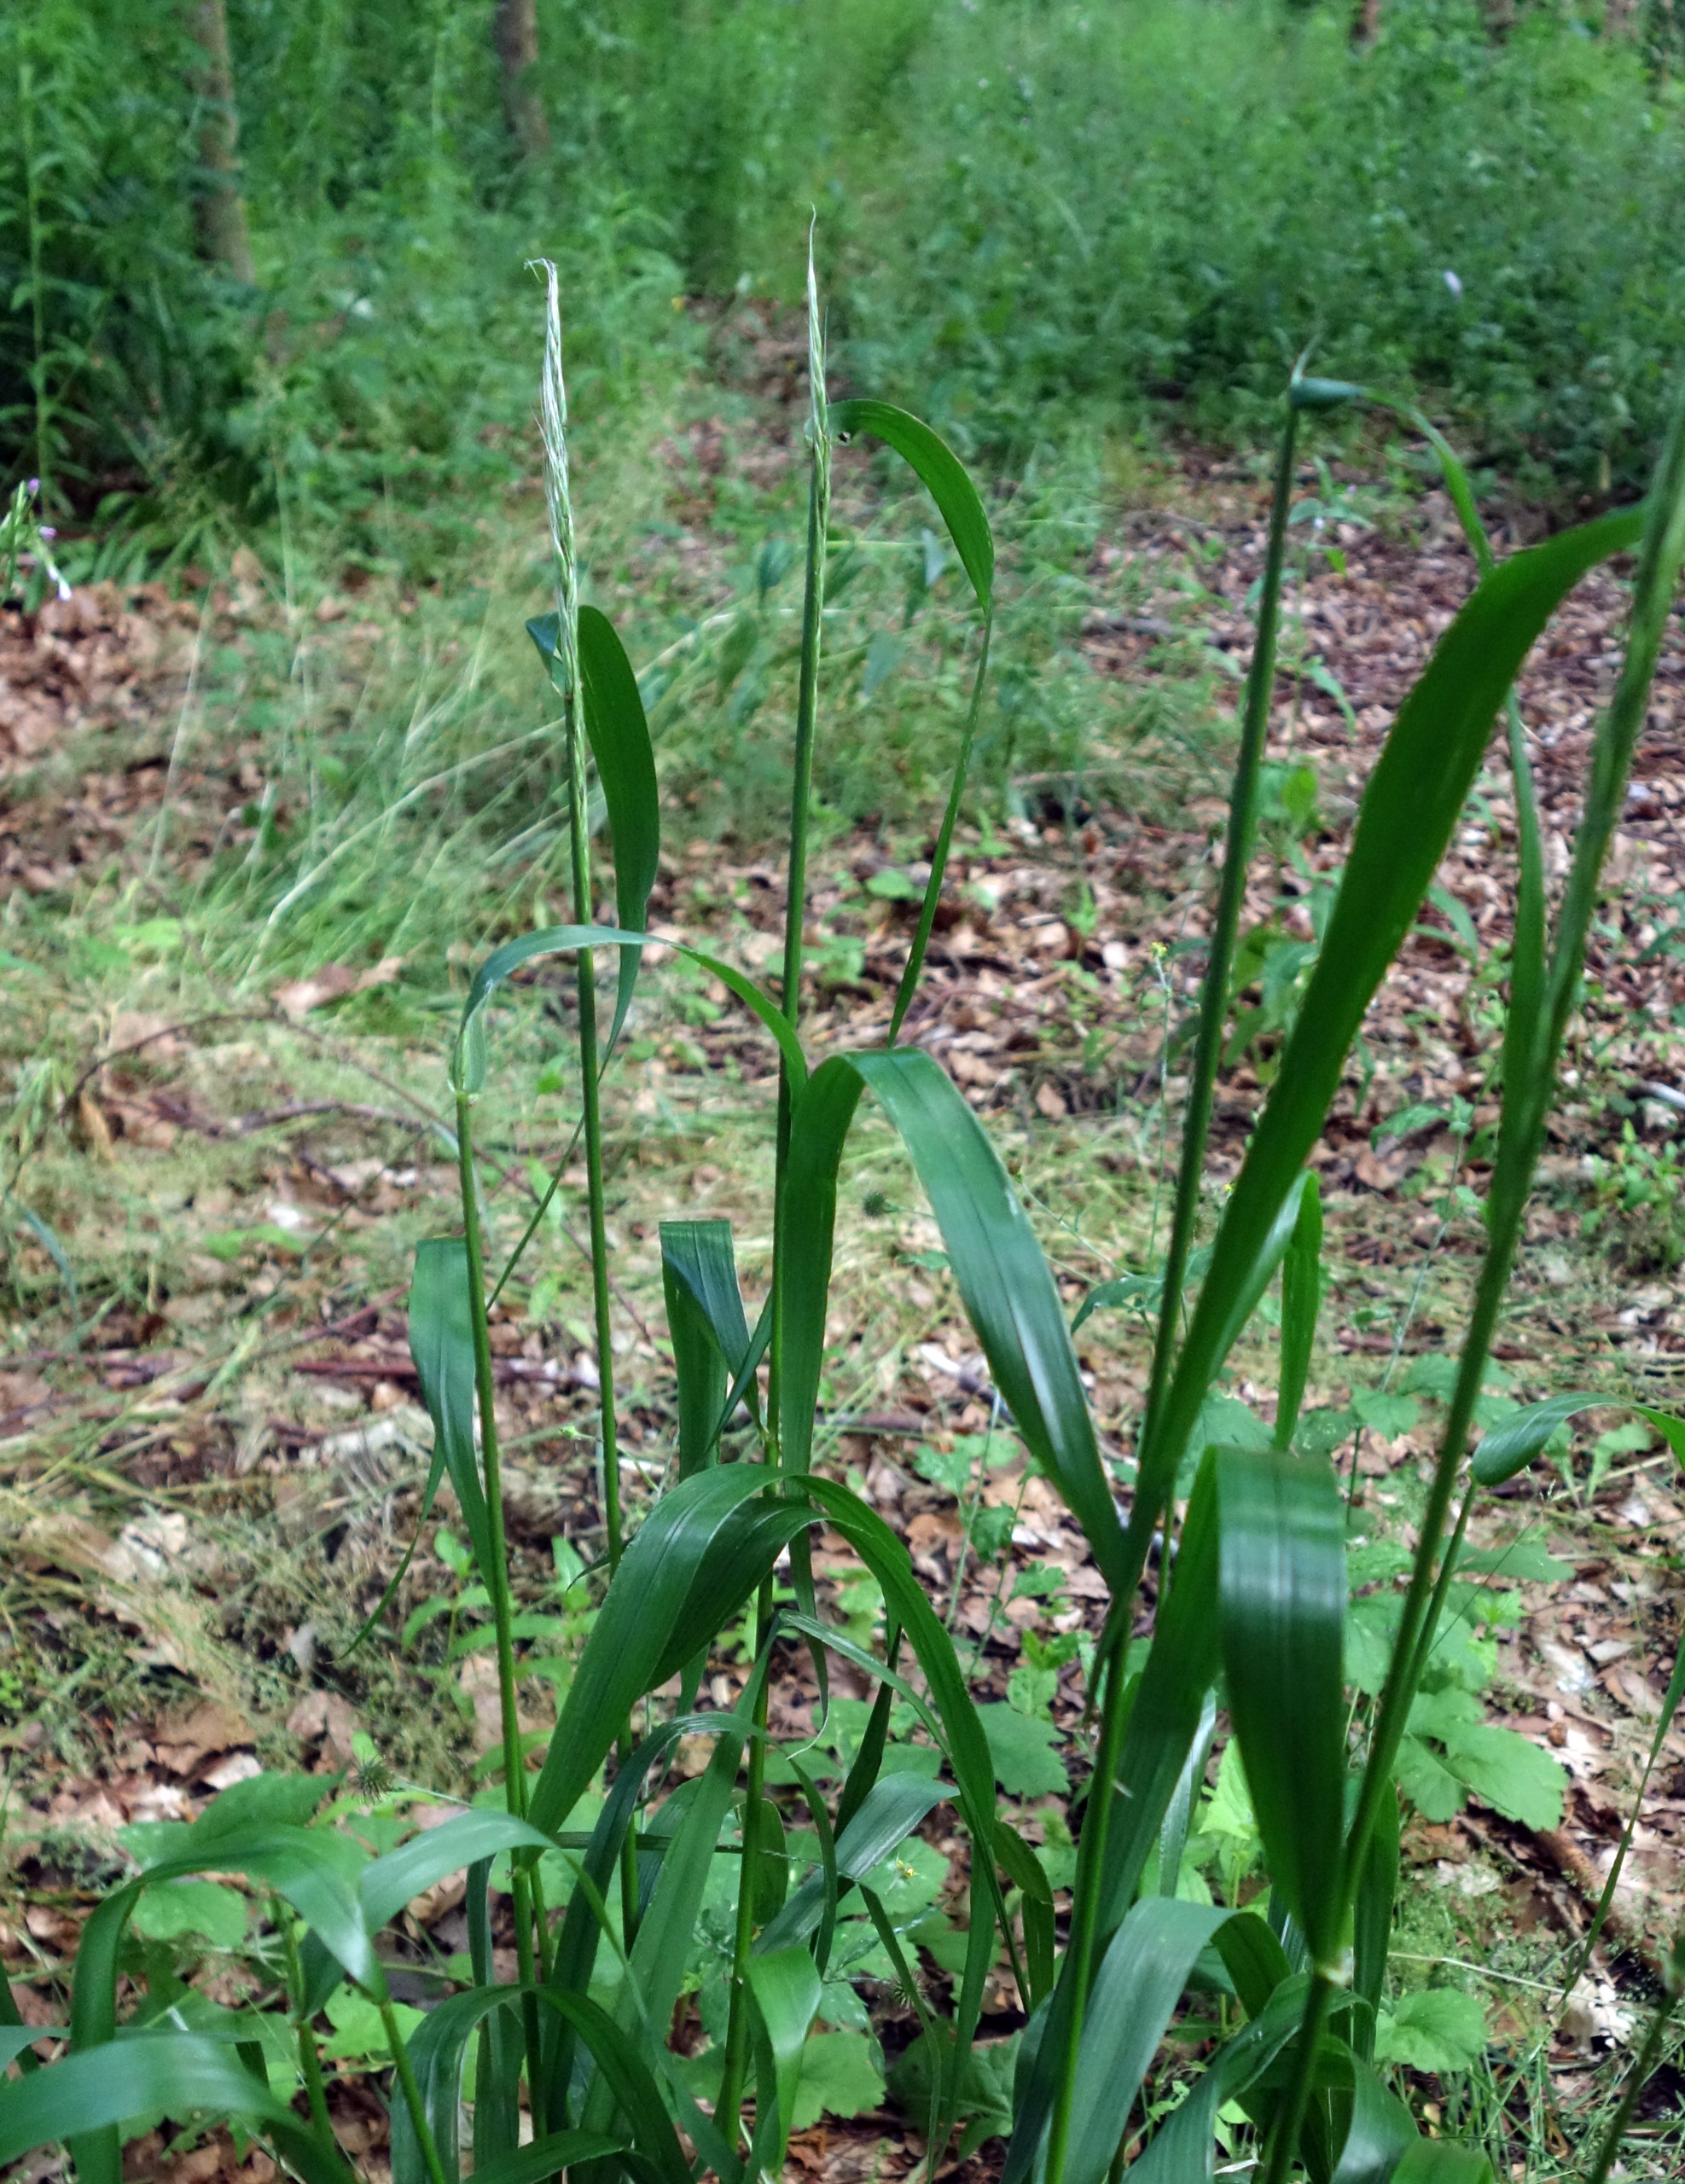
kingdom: Plantae
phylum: Tracheophyta
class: Liliopsida
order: Poales
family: Poaceae
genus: Lolium
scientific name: Lolium giganteum
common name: Kæmpe-svingel
